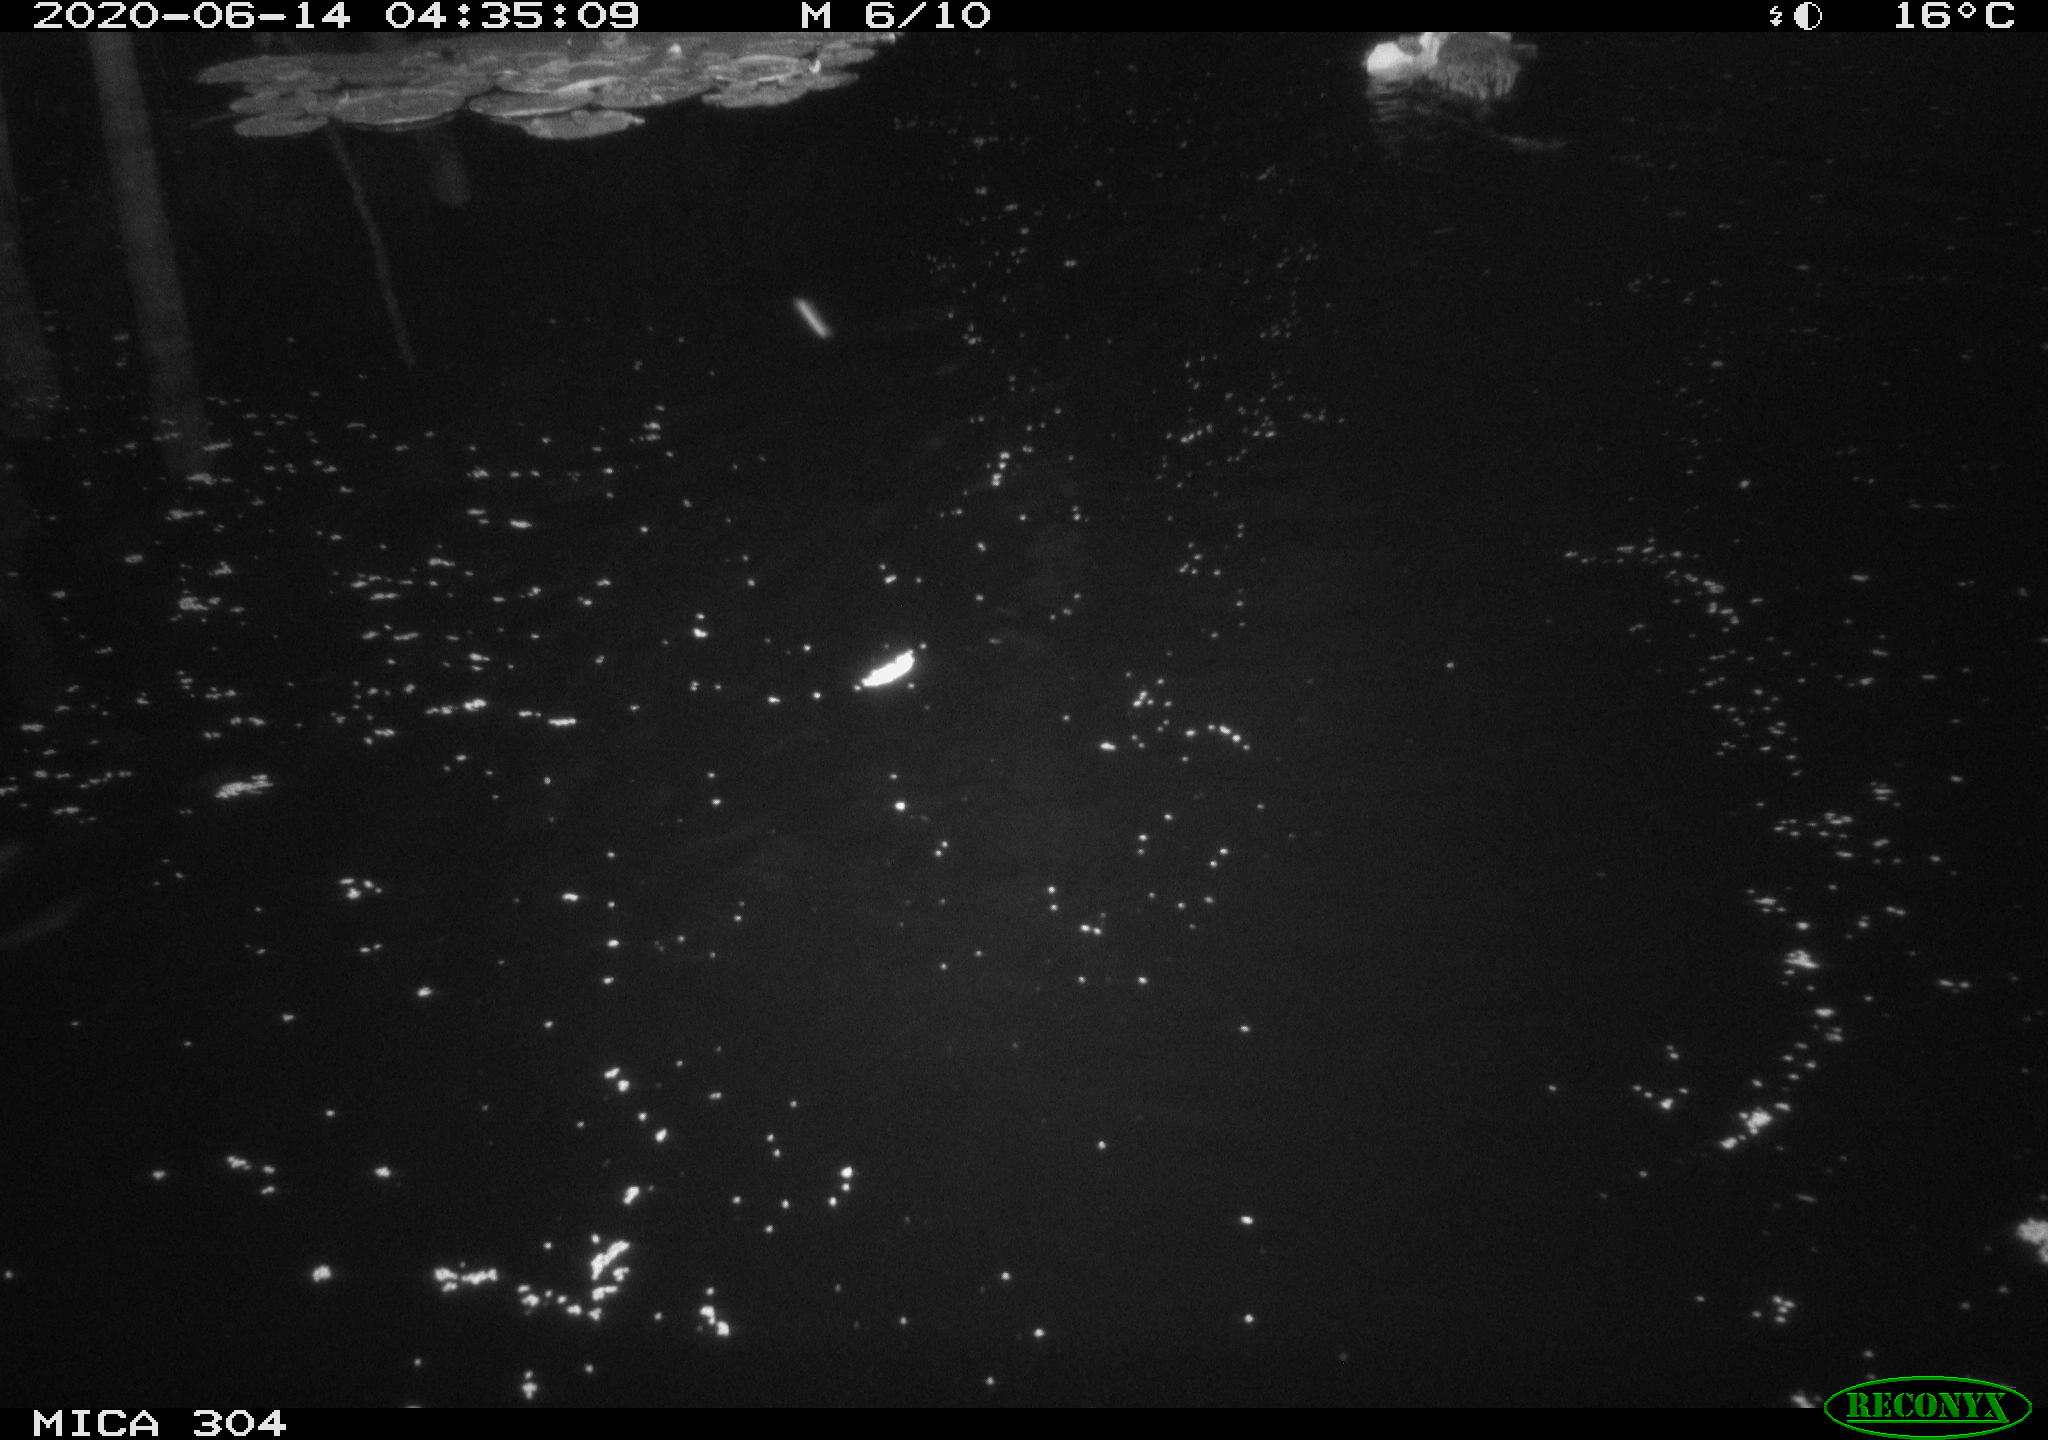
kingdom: Animalia
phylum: Chordata
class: Mammalia
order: Rodentia
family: Cricetidae
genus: Ondatra
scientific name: Ondatra zibethicus
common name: Muskrat
